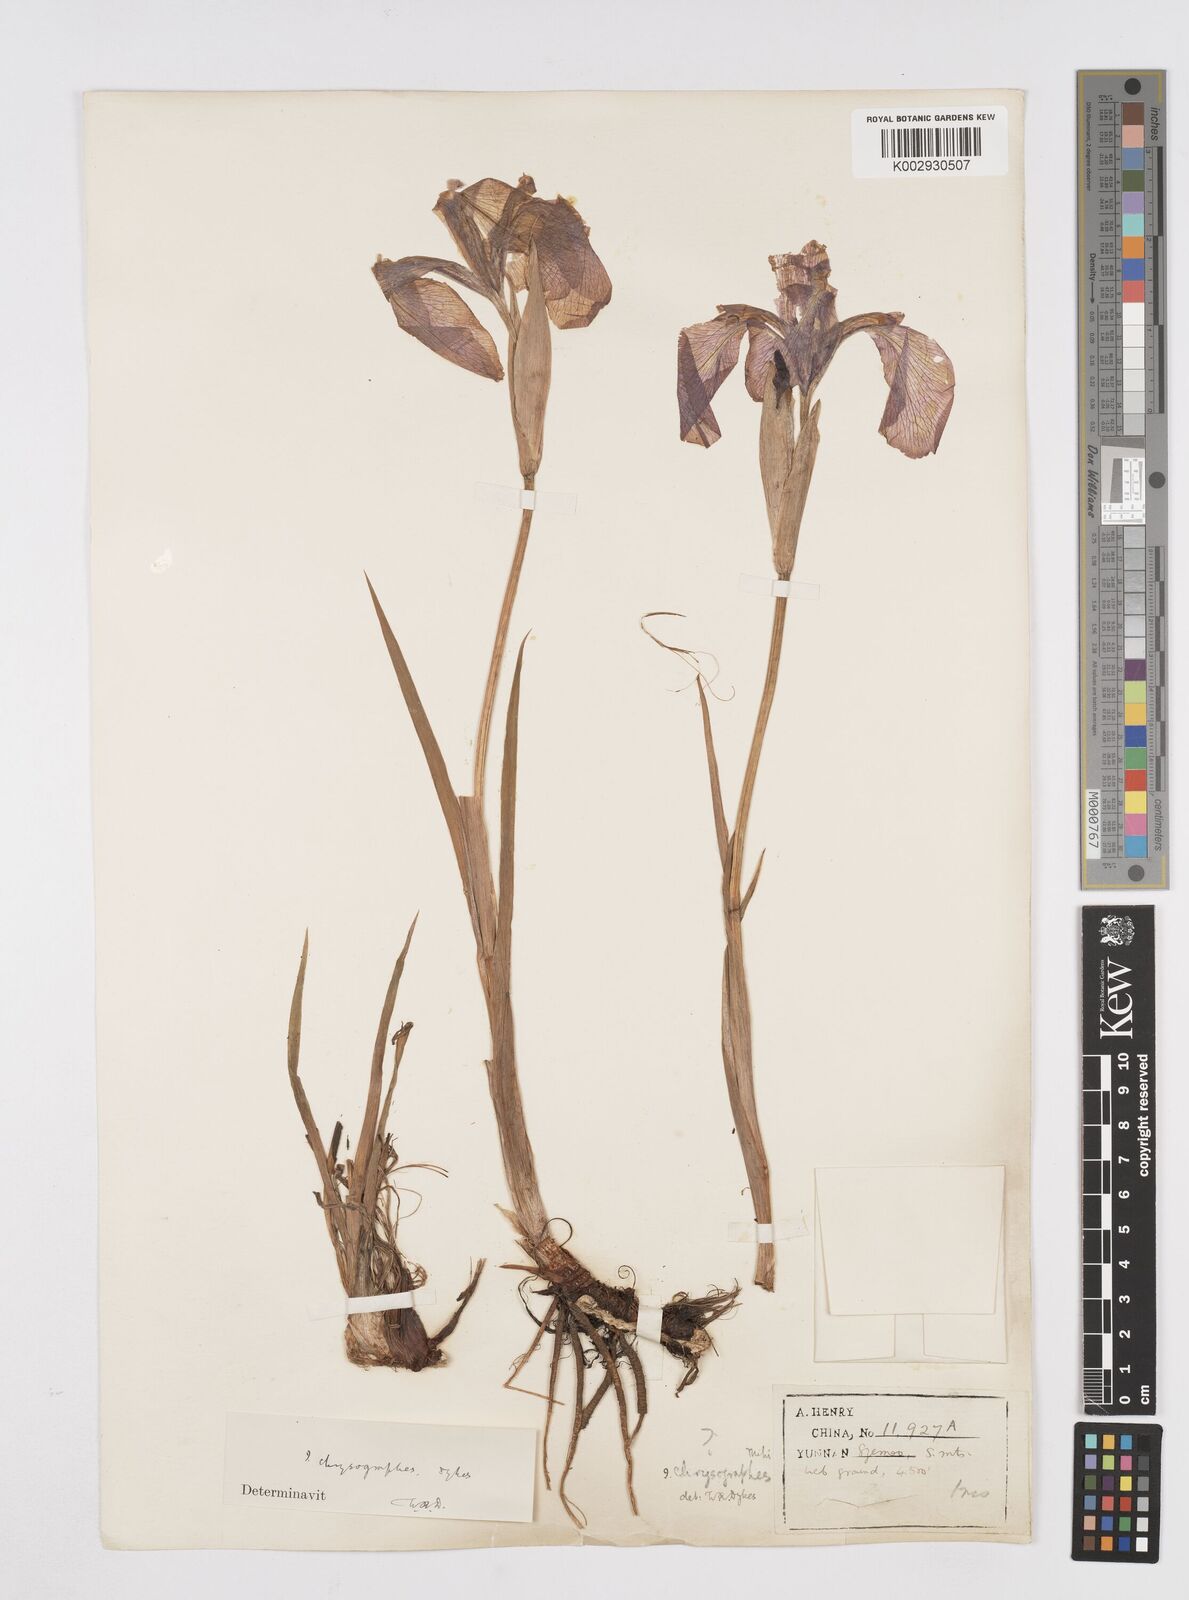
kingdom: Plantae
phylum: Tracheophyta
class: Liliopsida
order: Asparagales
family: Iridaceae
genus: Iris
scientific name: Iris chrysographes
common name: Gold-vein iris
